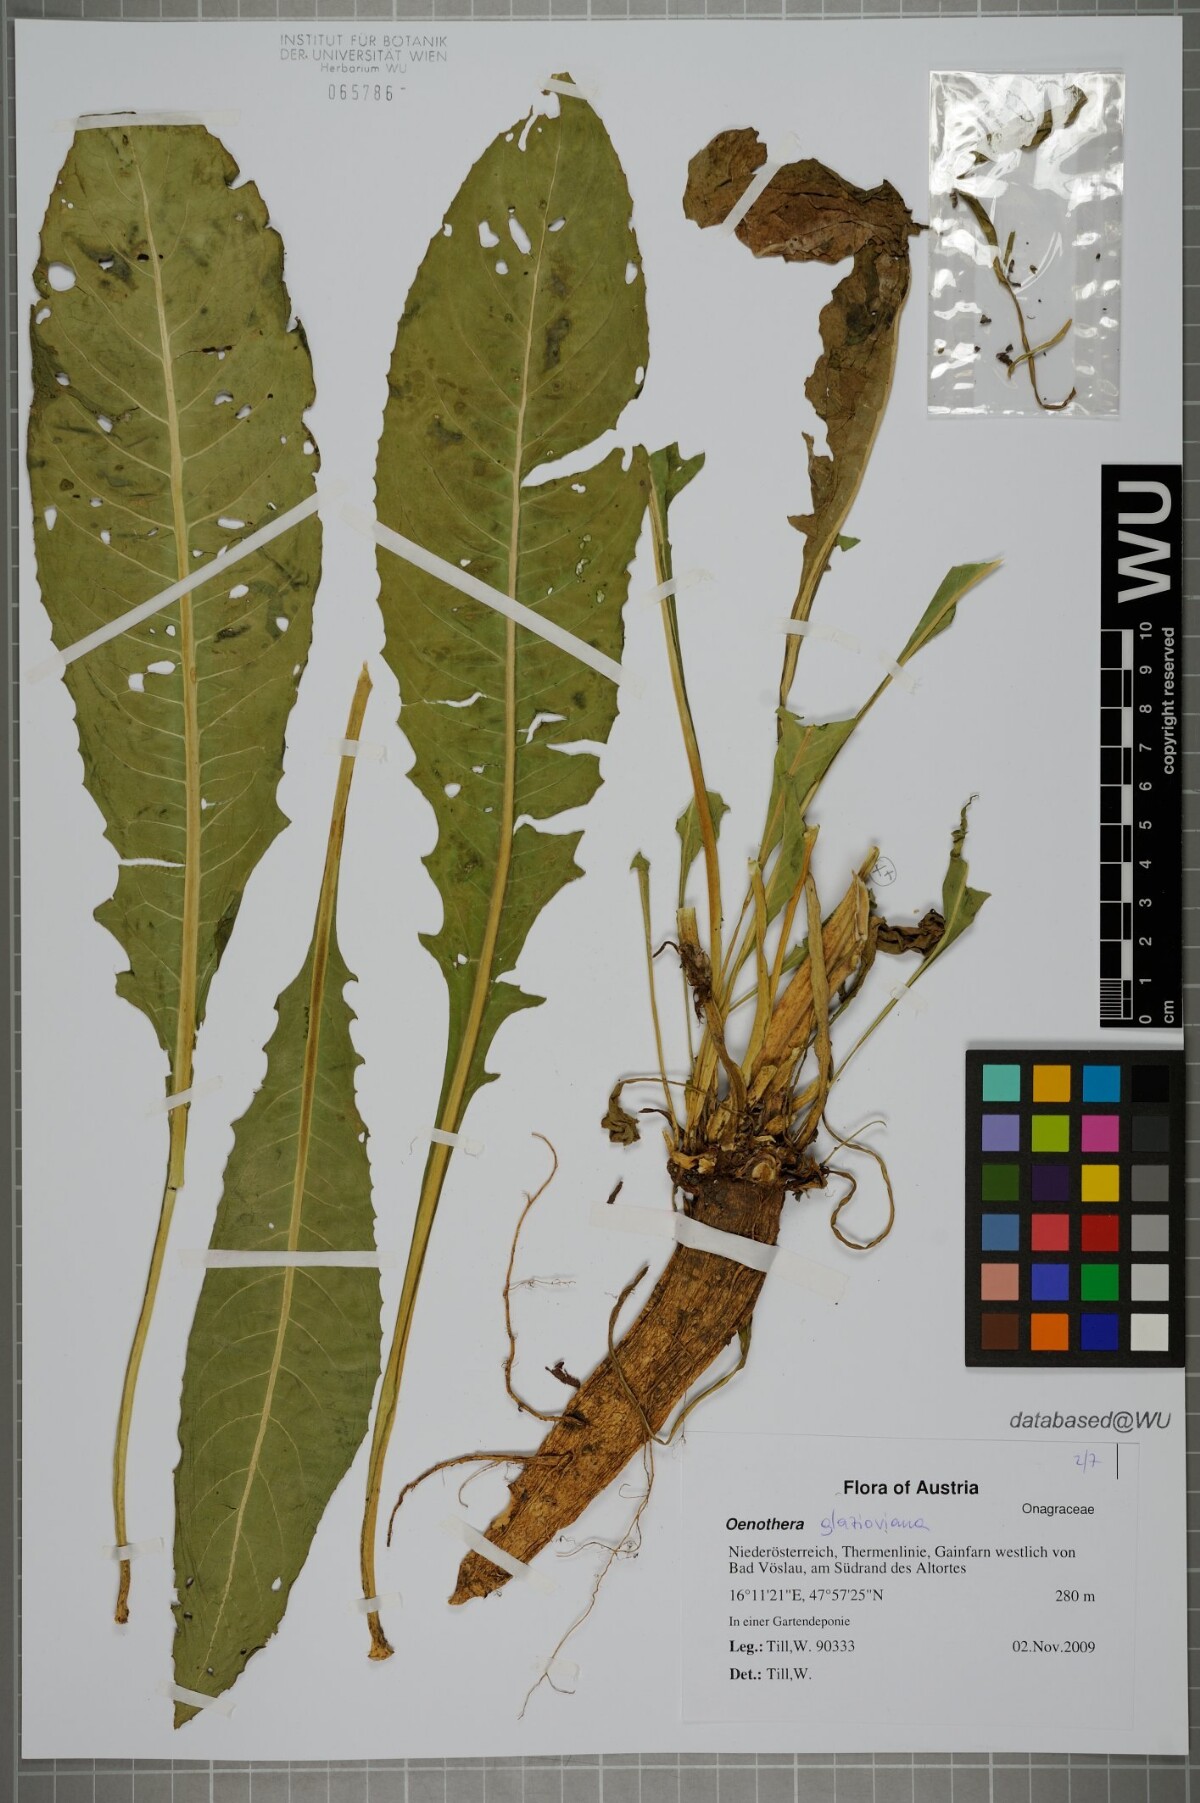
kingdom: Plantae
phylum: Tracheophyta
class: Magnoliopsida
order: Myrtales
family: Onagraceae
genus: Oenothera
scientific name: Oenothera glazioviana
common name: Large-flowered evening-primrose
